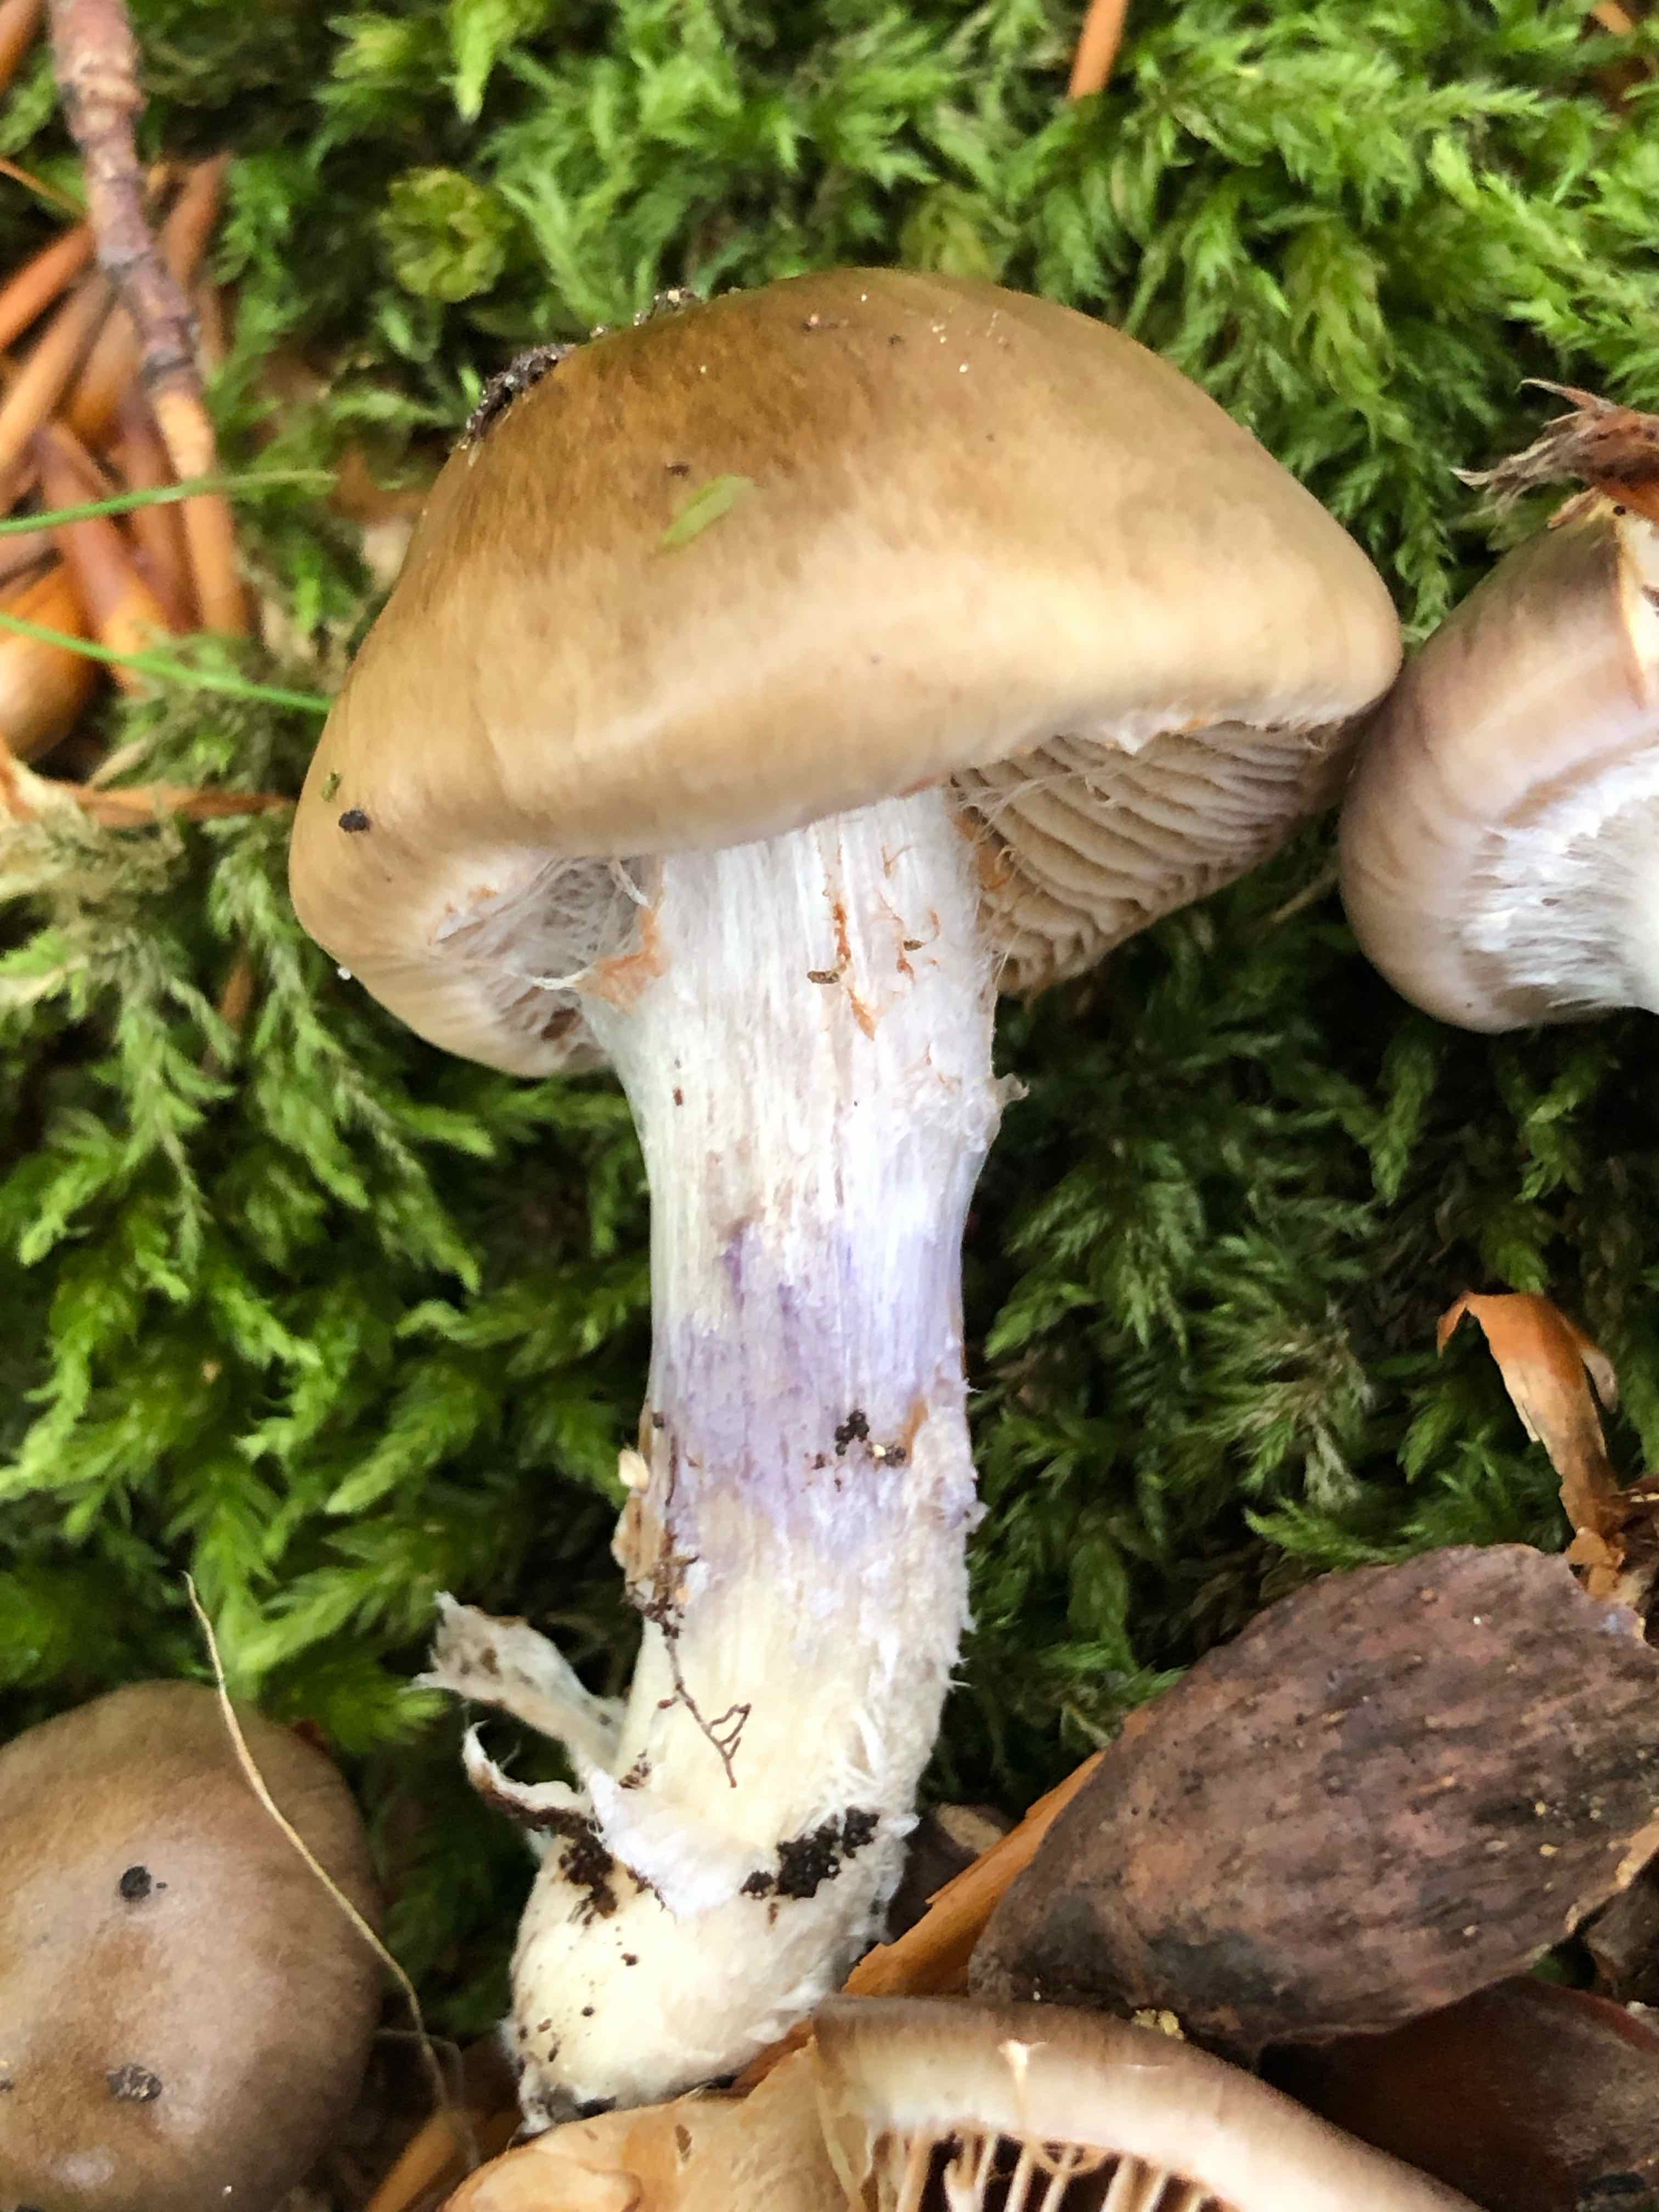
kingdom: Fungi
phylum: Basidiomycota
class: Agaricomycetes
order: Agaricales
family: Cortinariaceae
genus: Cortinarius
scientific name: Cortinarius livido-ochraceus
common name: halvhøj slørhat
